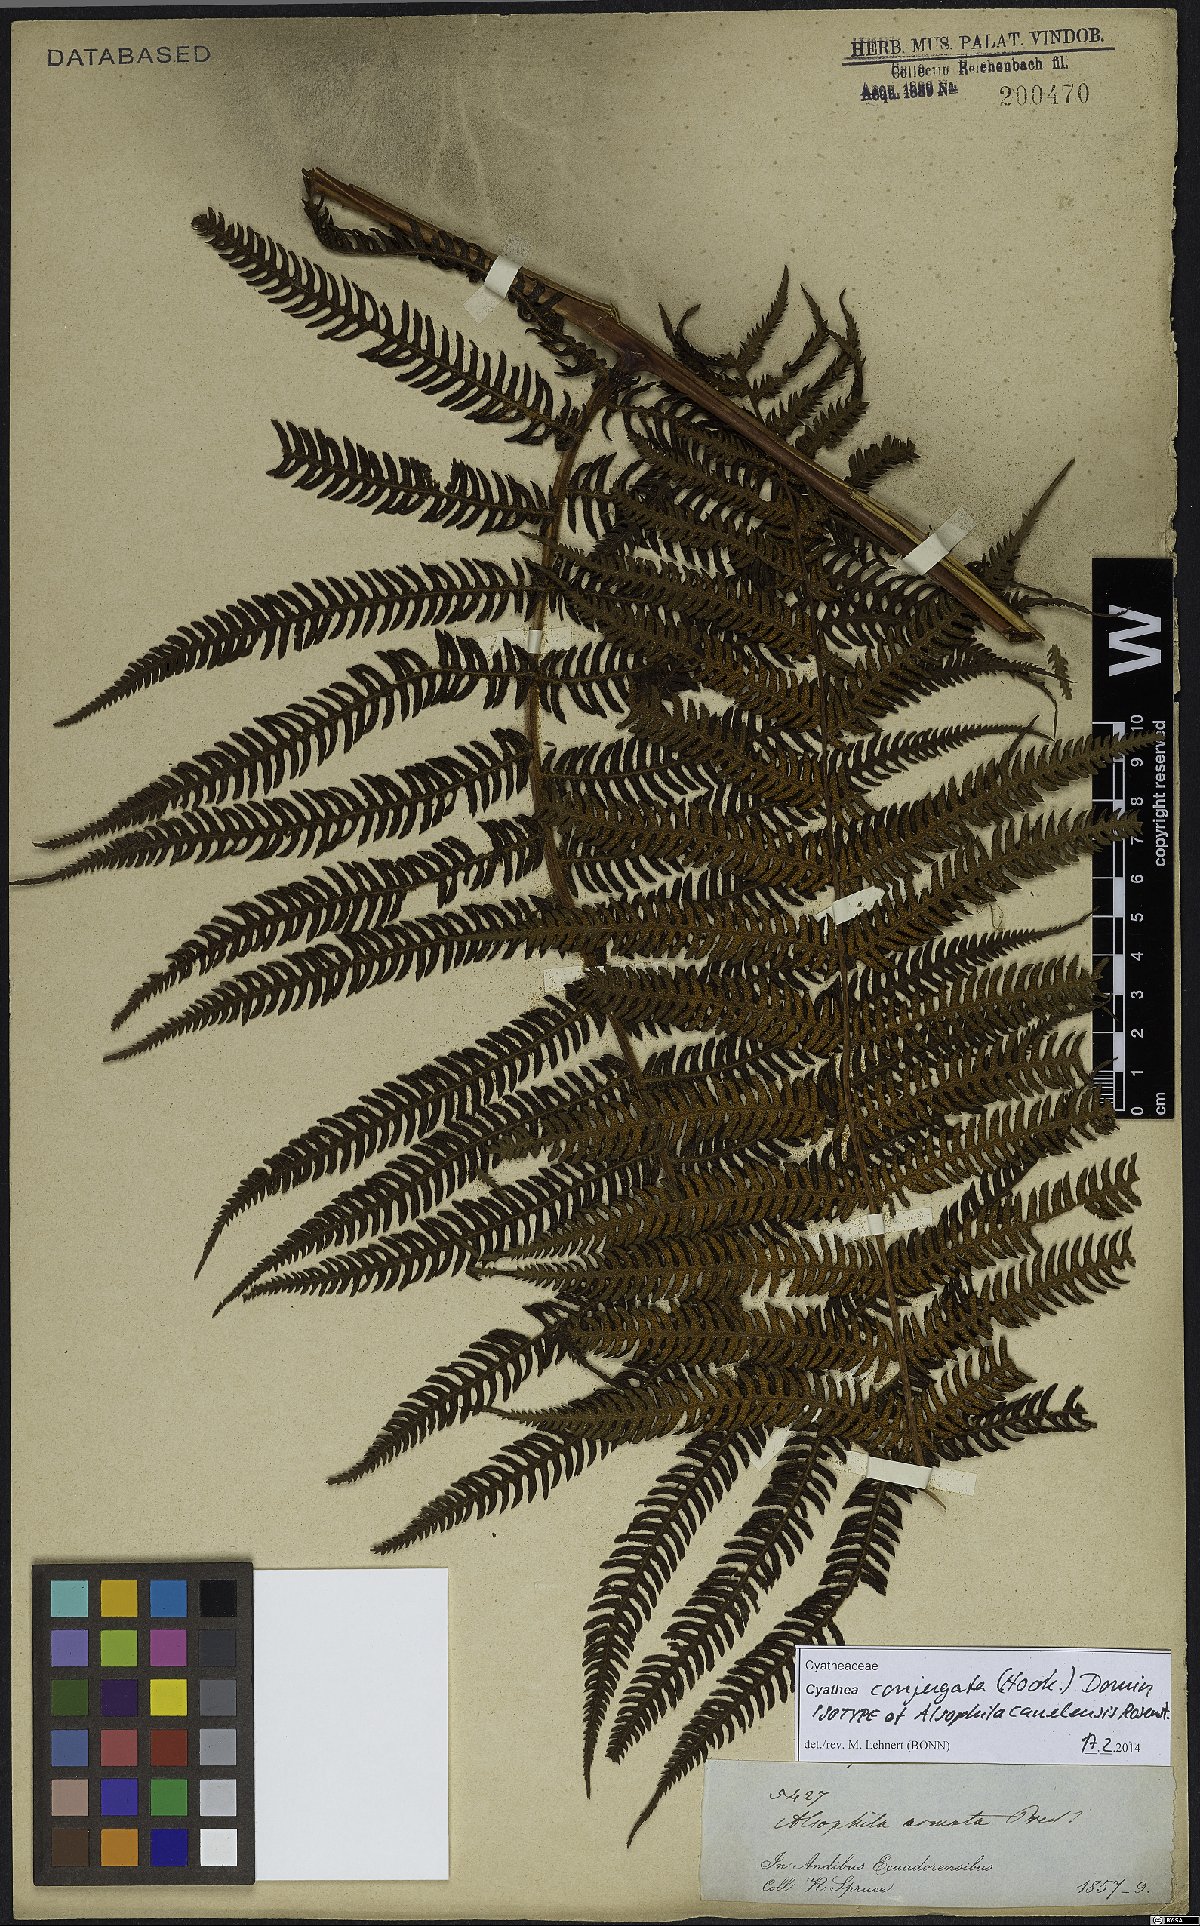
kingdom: Plantae
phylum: Tracheophyta
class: Polypodiopsida
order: Cyatheales
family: Cyatheaceae
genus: Cyathea
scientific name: Cyathea conjugata
